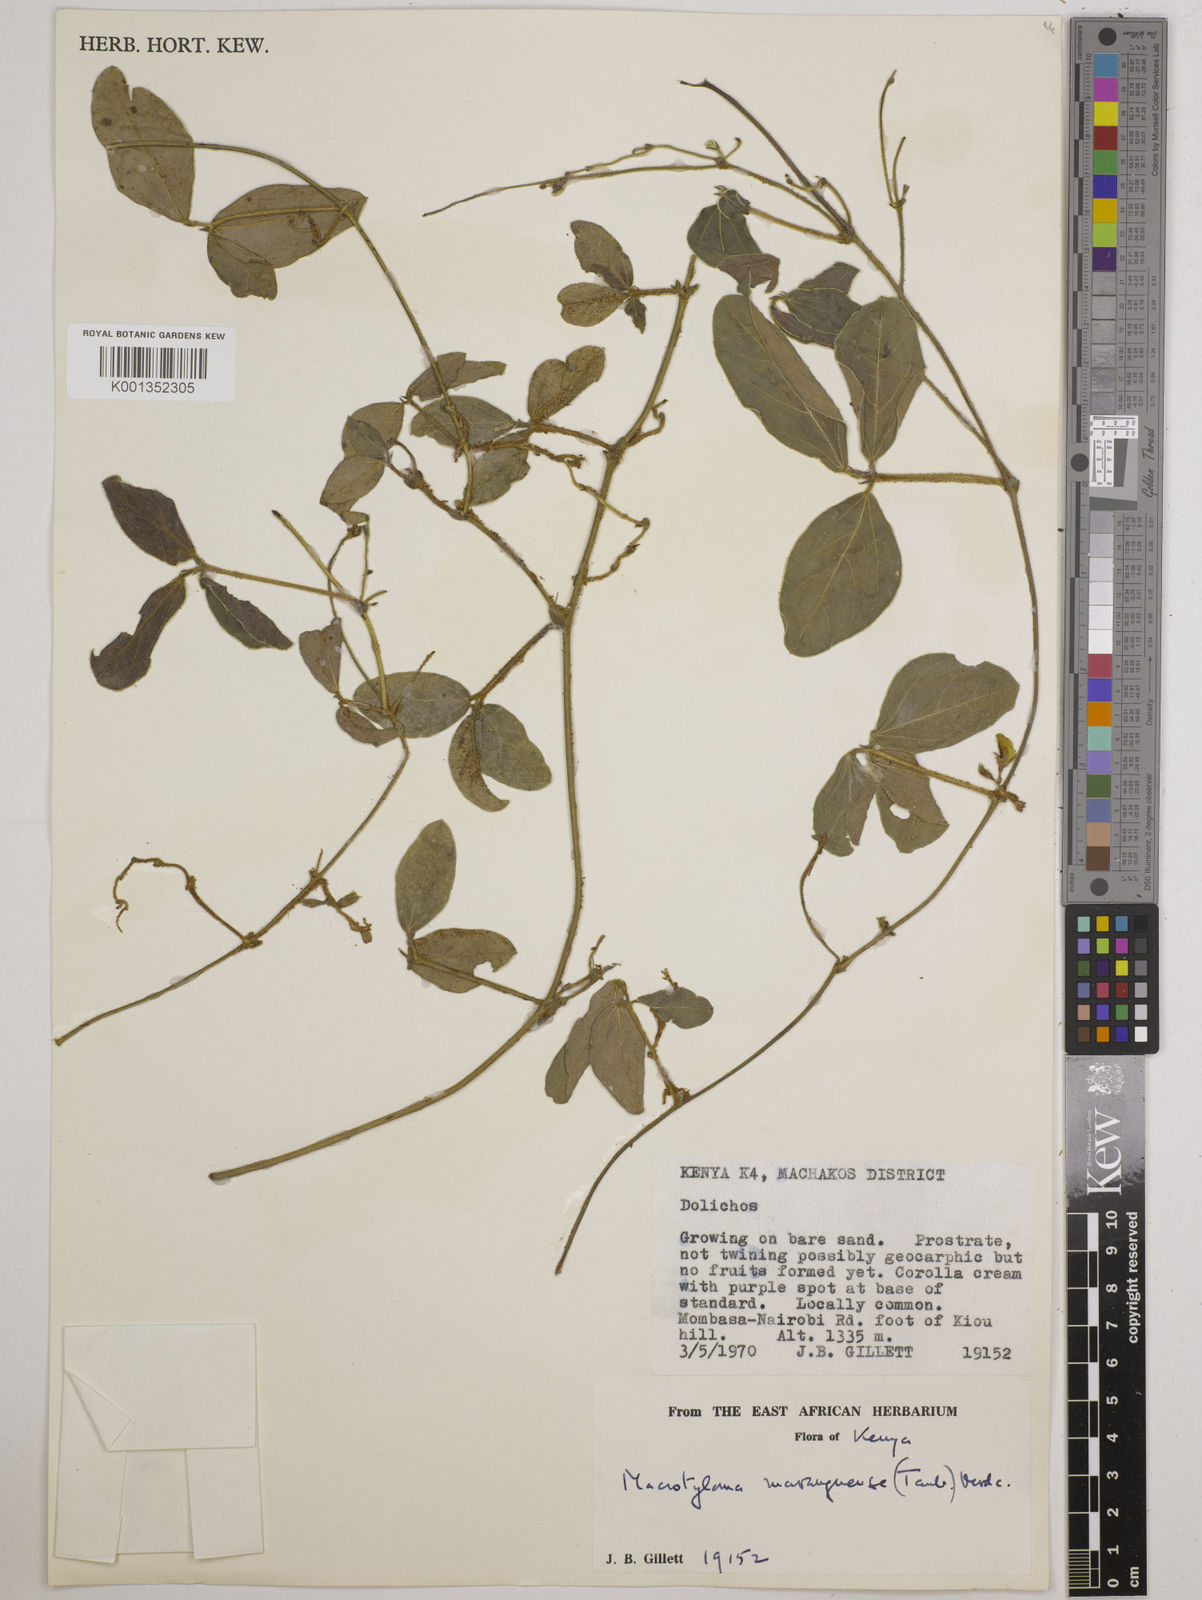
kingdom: Plantae
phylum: Tracheophyta
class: Magnoliopsida
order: Fabales
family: Fabaceae
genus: Macrotyloma
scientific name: Macrotyloma maranguense
